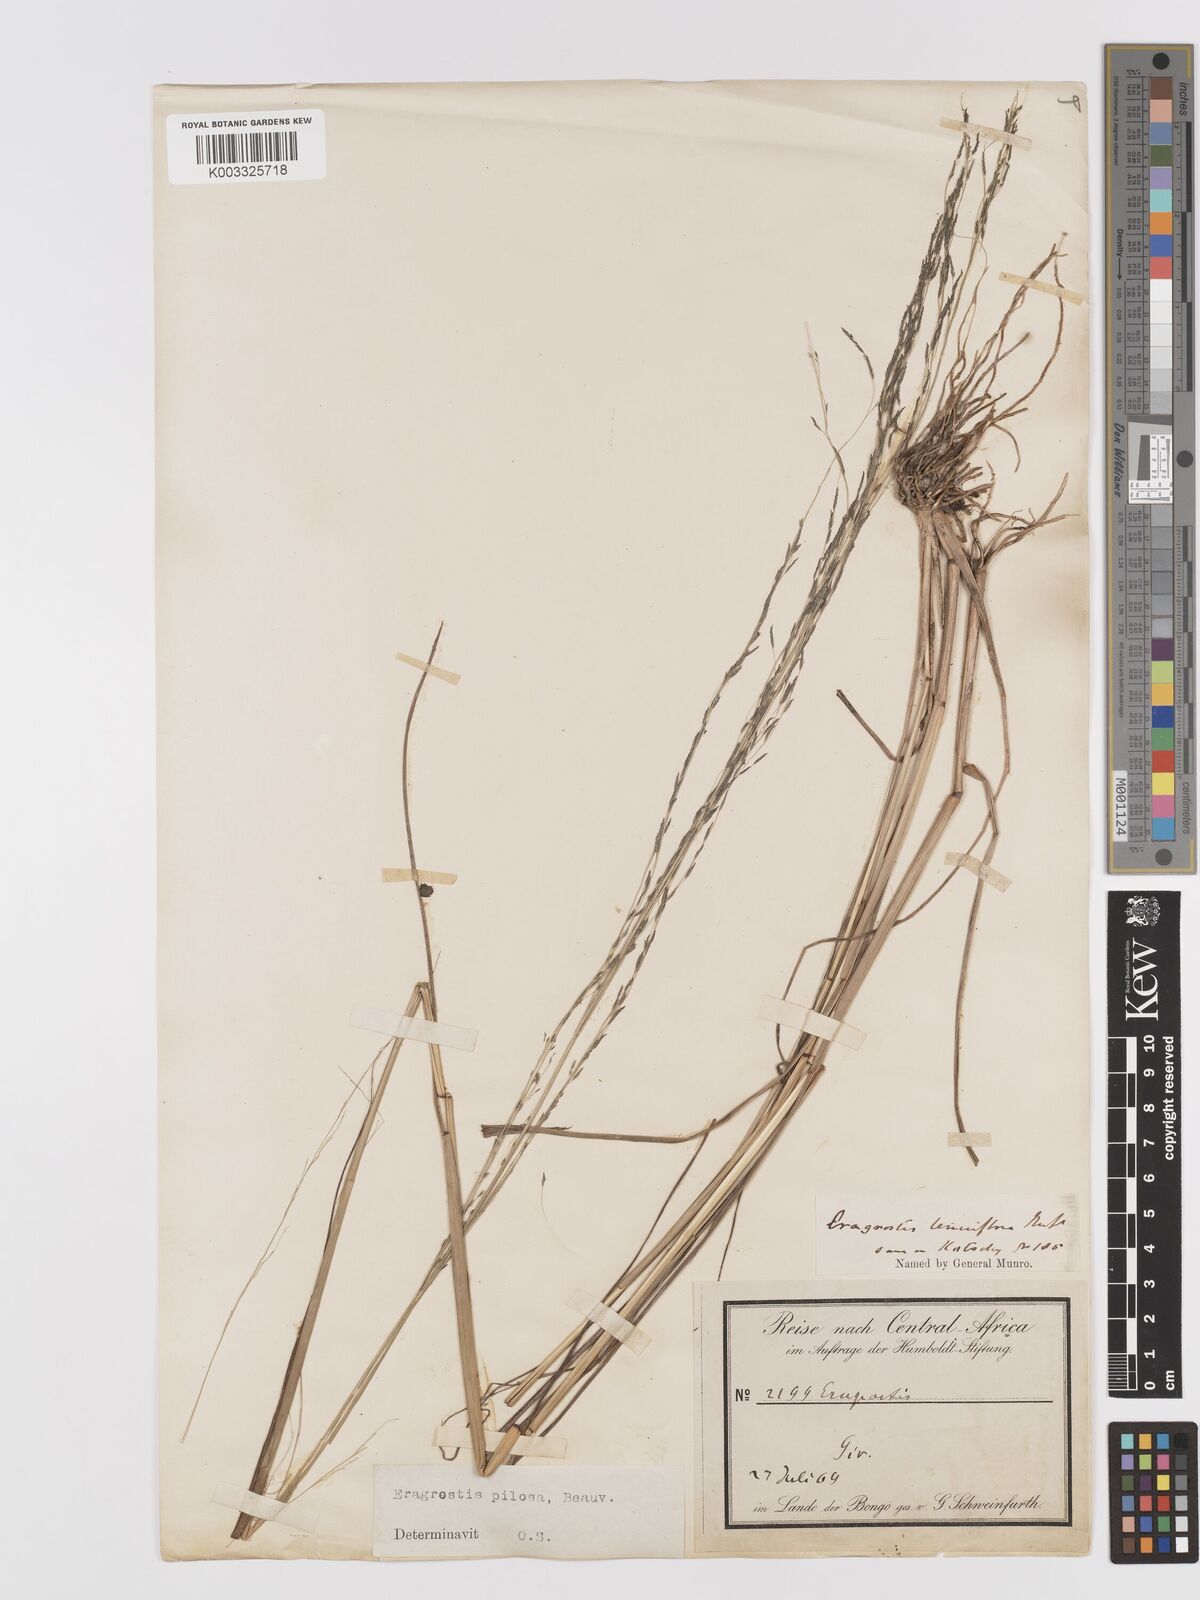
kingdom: Plantae
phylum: Tracheophyta
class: Liliopsida
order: Poales
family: Poaceae
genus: Eragrostis
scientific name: Eragrostis pilosa
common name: Indian lovegrass
